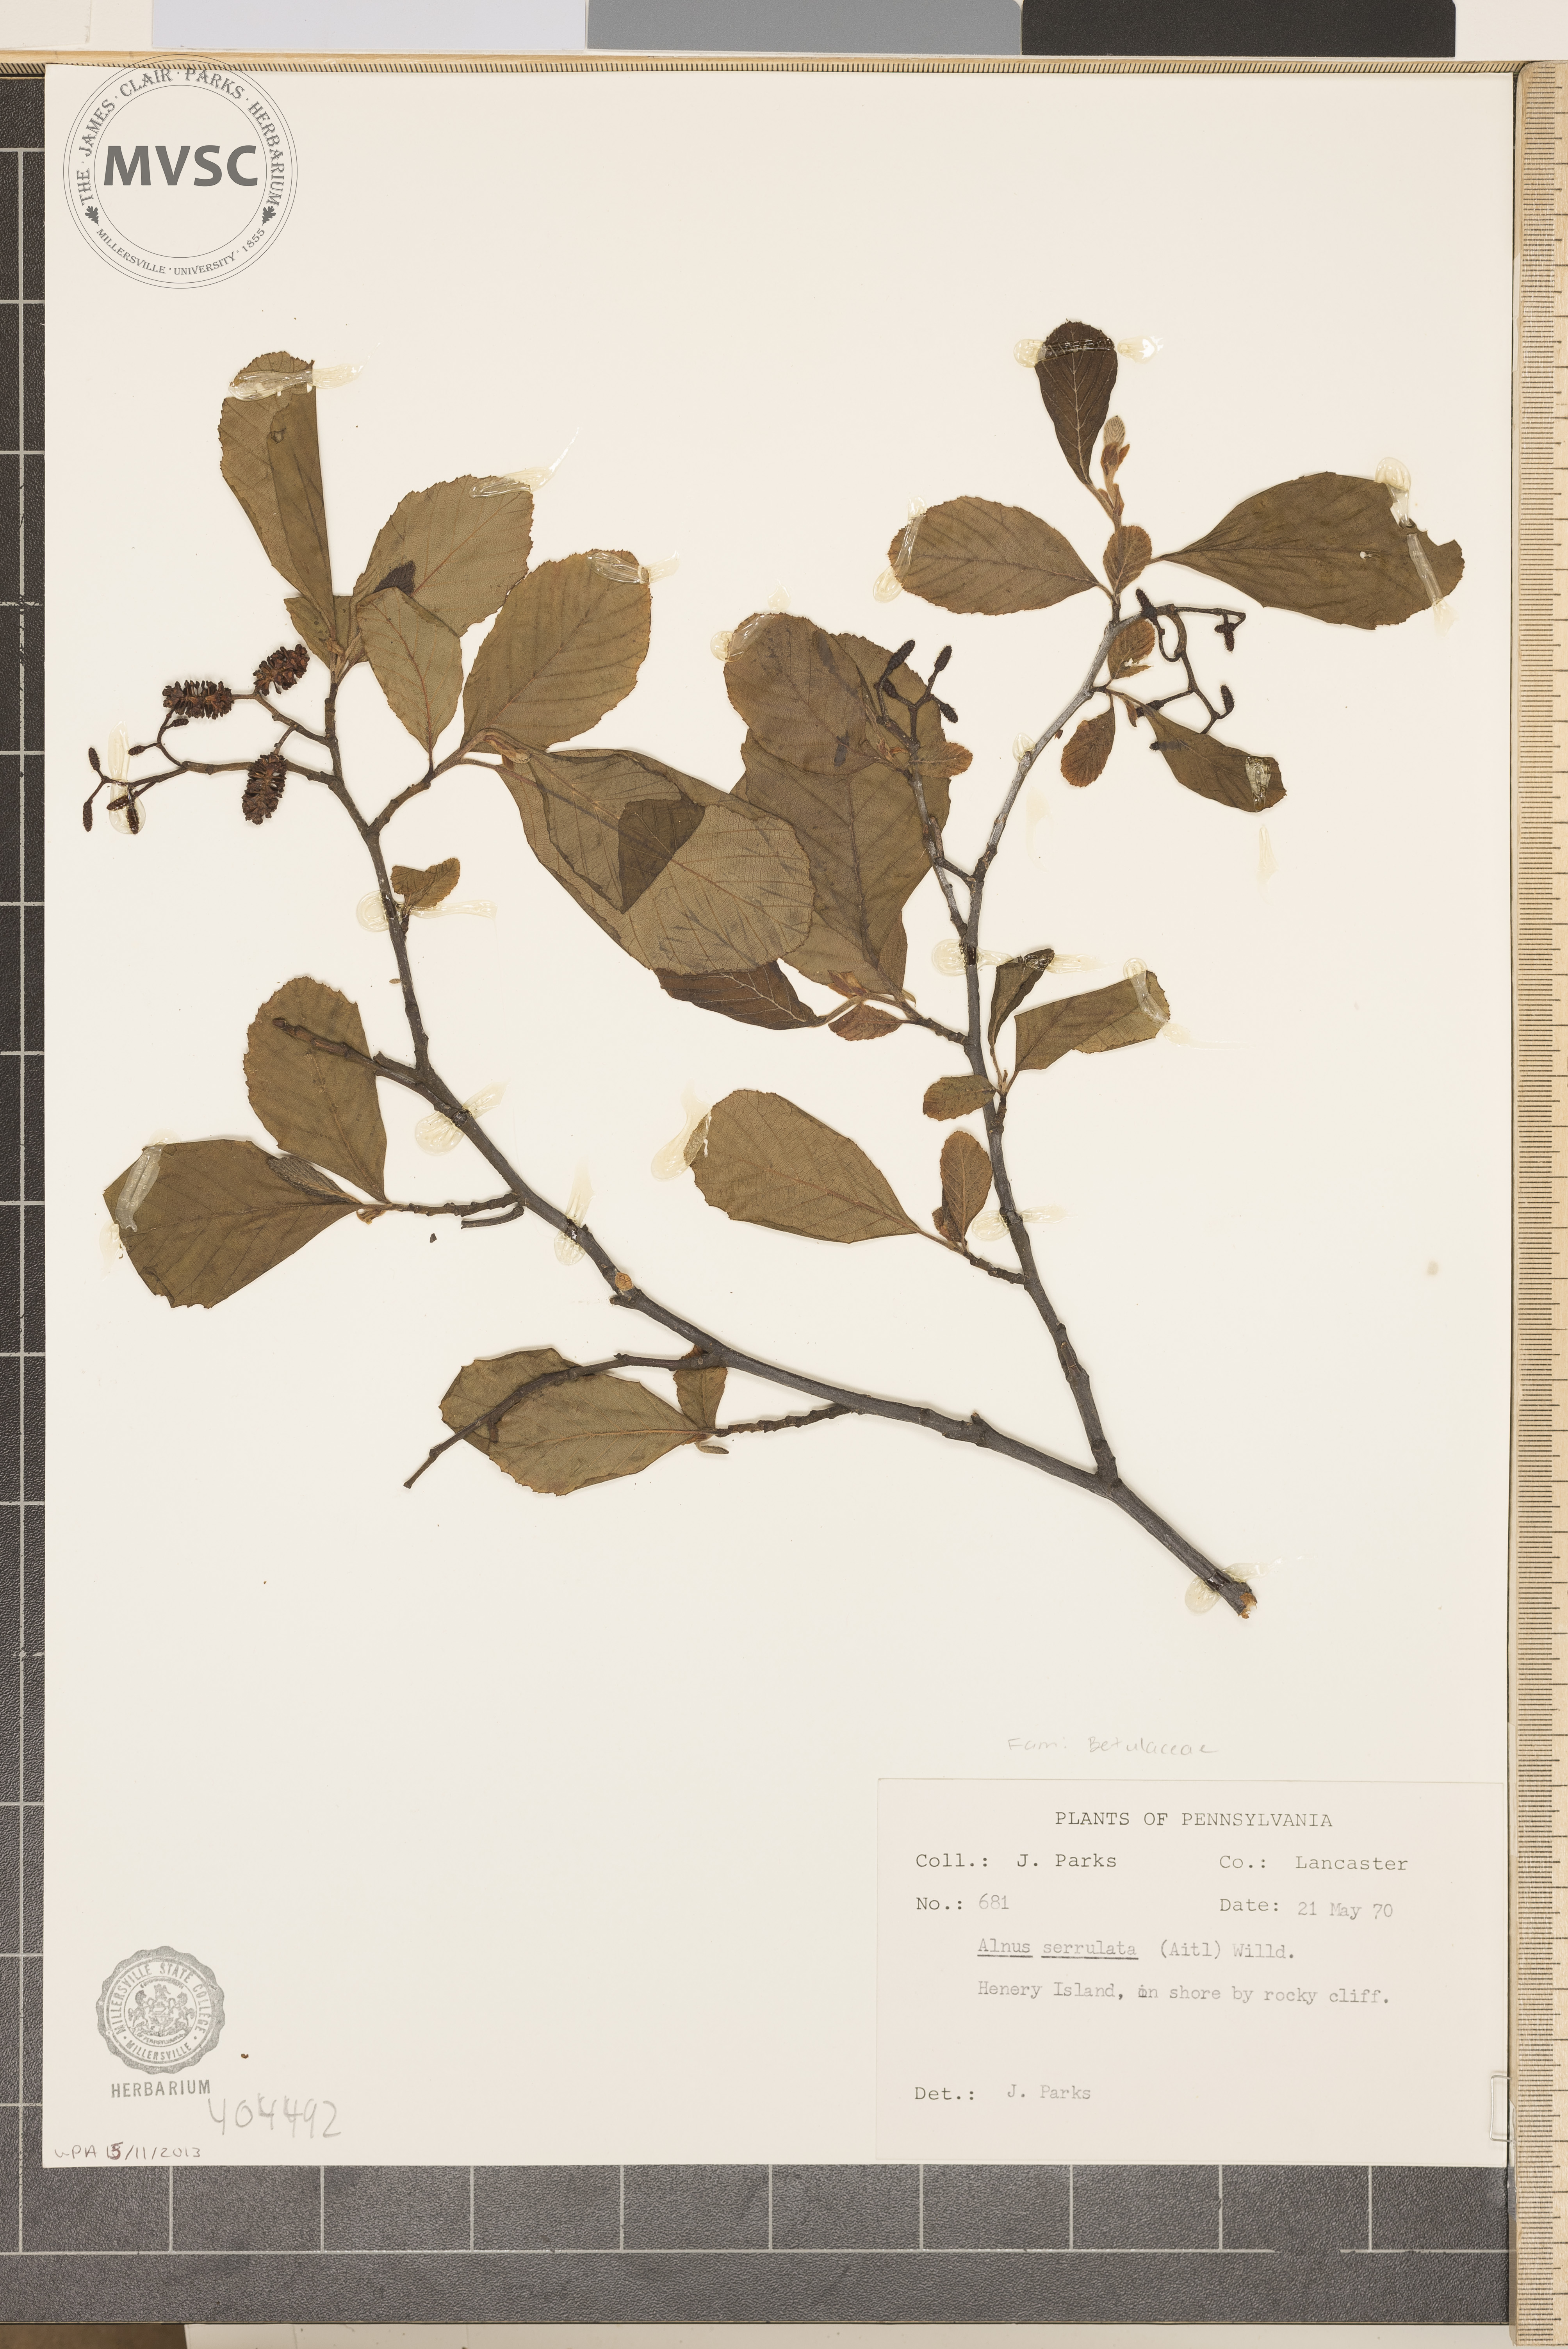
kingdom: Plantae
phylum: Tracheophyta
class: Magnoliopsida
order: Fagales
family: Betulaceae
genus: Alnus
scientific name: Alnus serrulata
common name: Hazel alder
